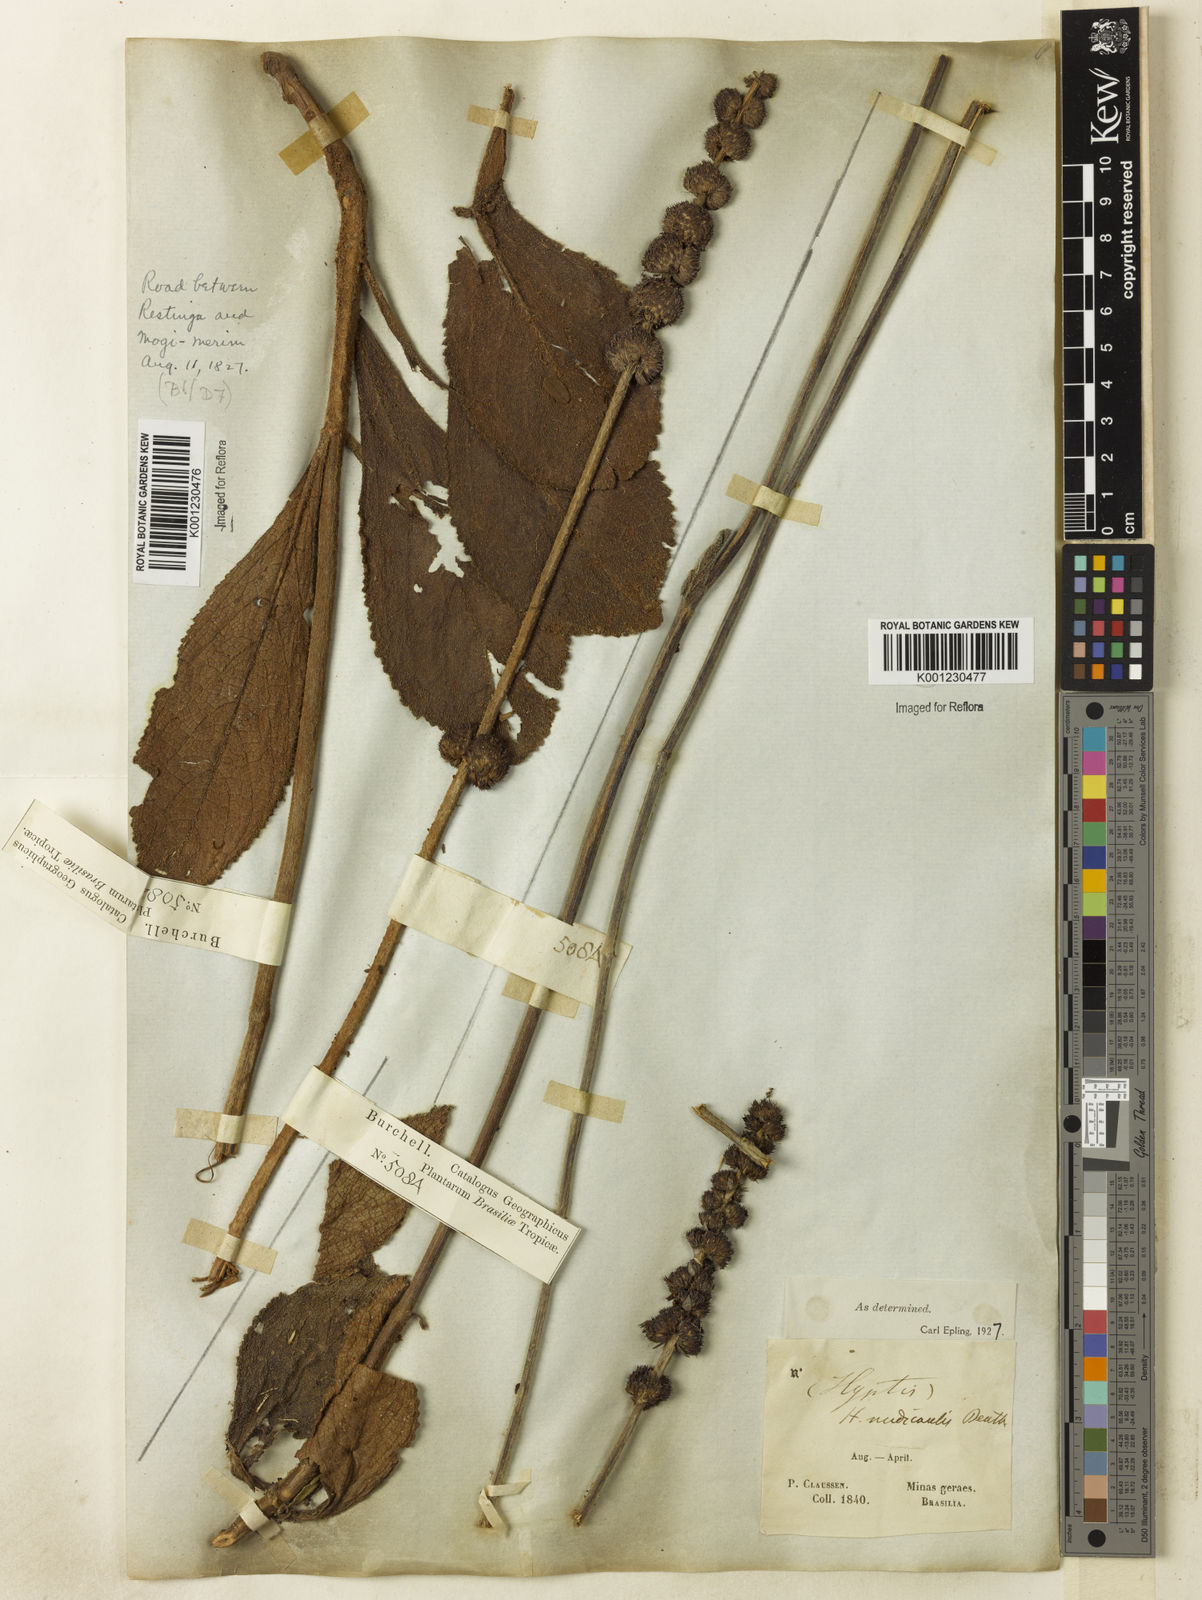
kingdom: Plantae
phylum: Tracheophyta
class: Magnoliopsida
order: Lamiales
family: Lamiaceae
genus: Hyptis
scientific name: Hyptis nudicaulis
